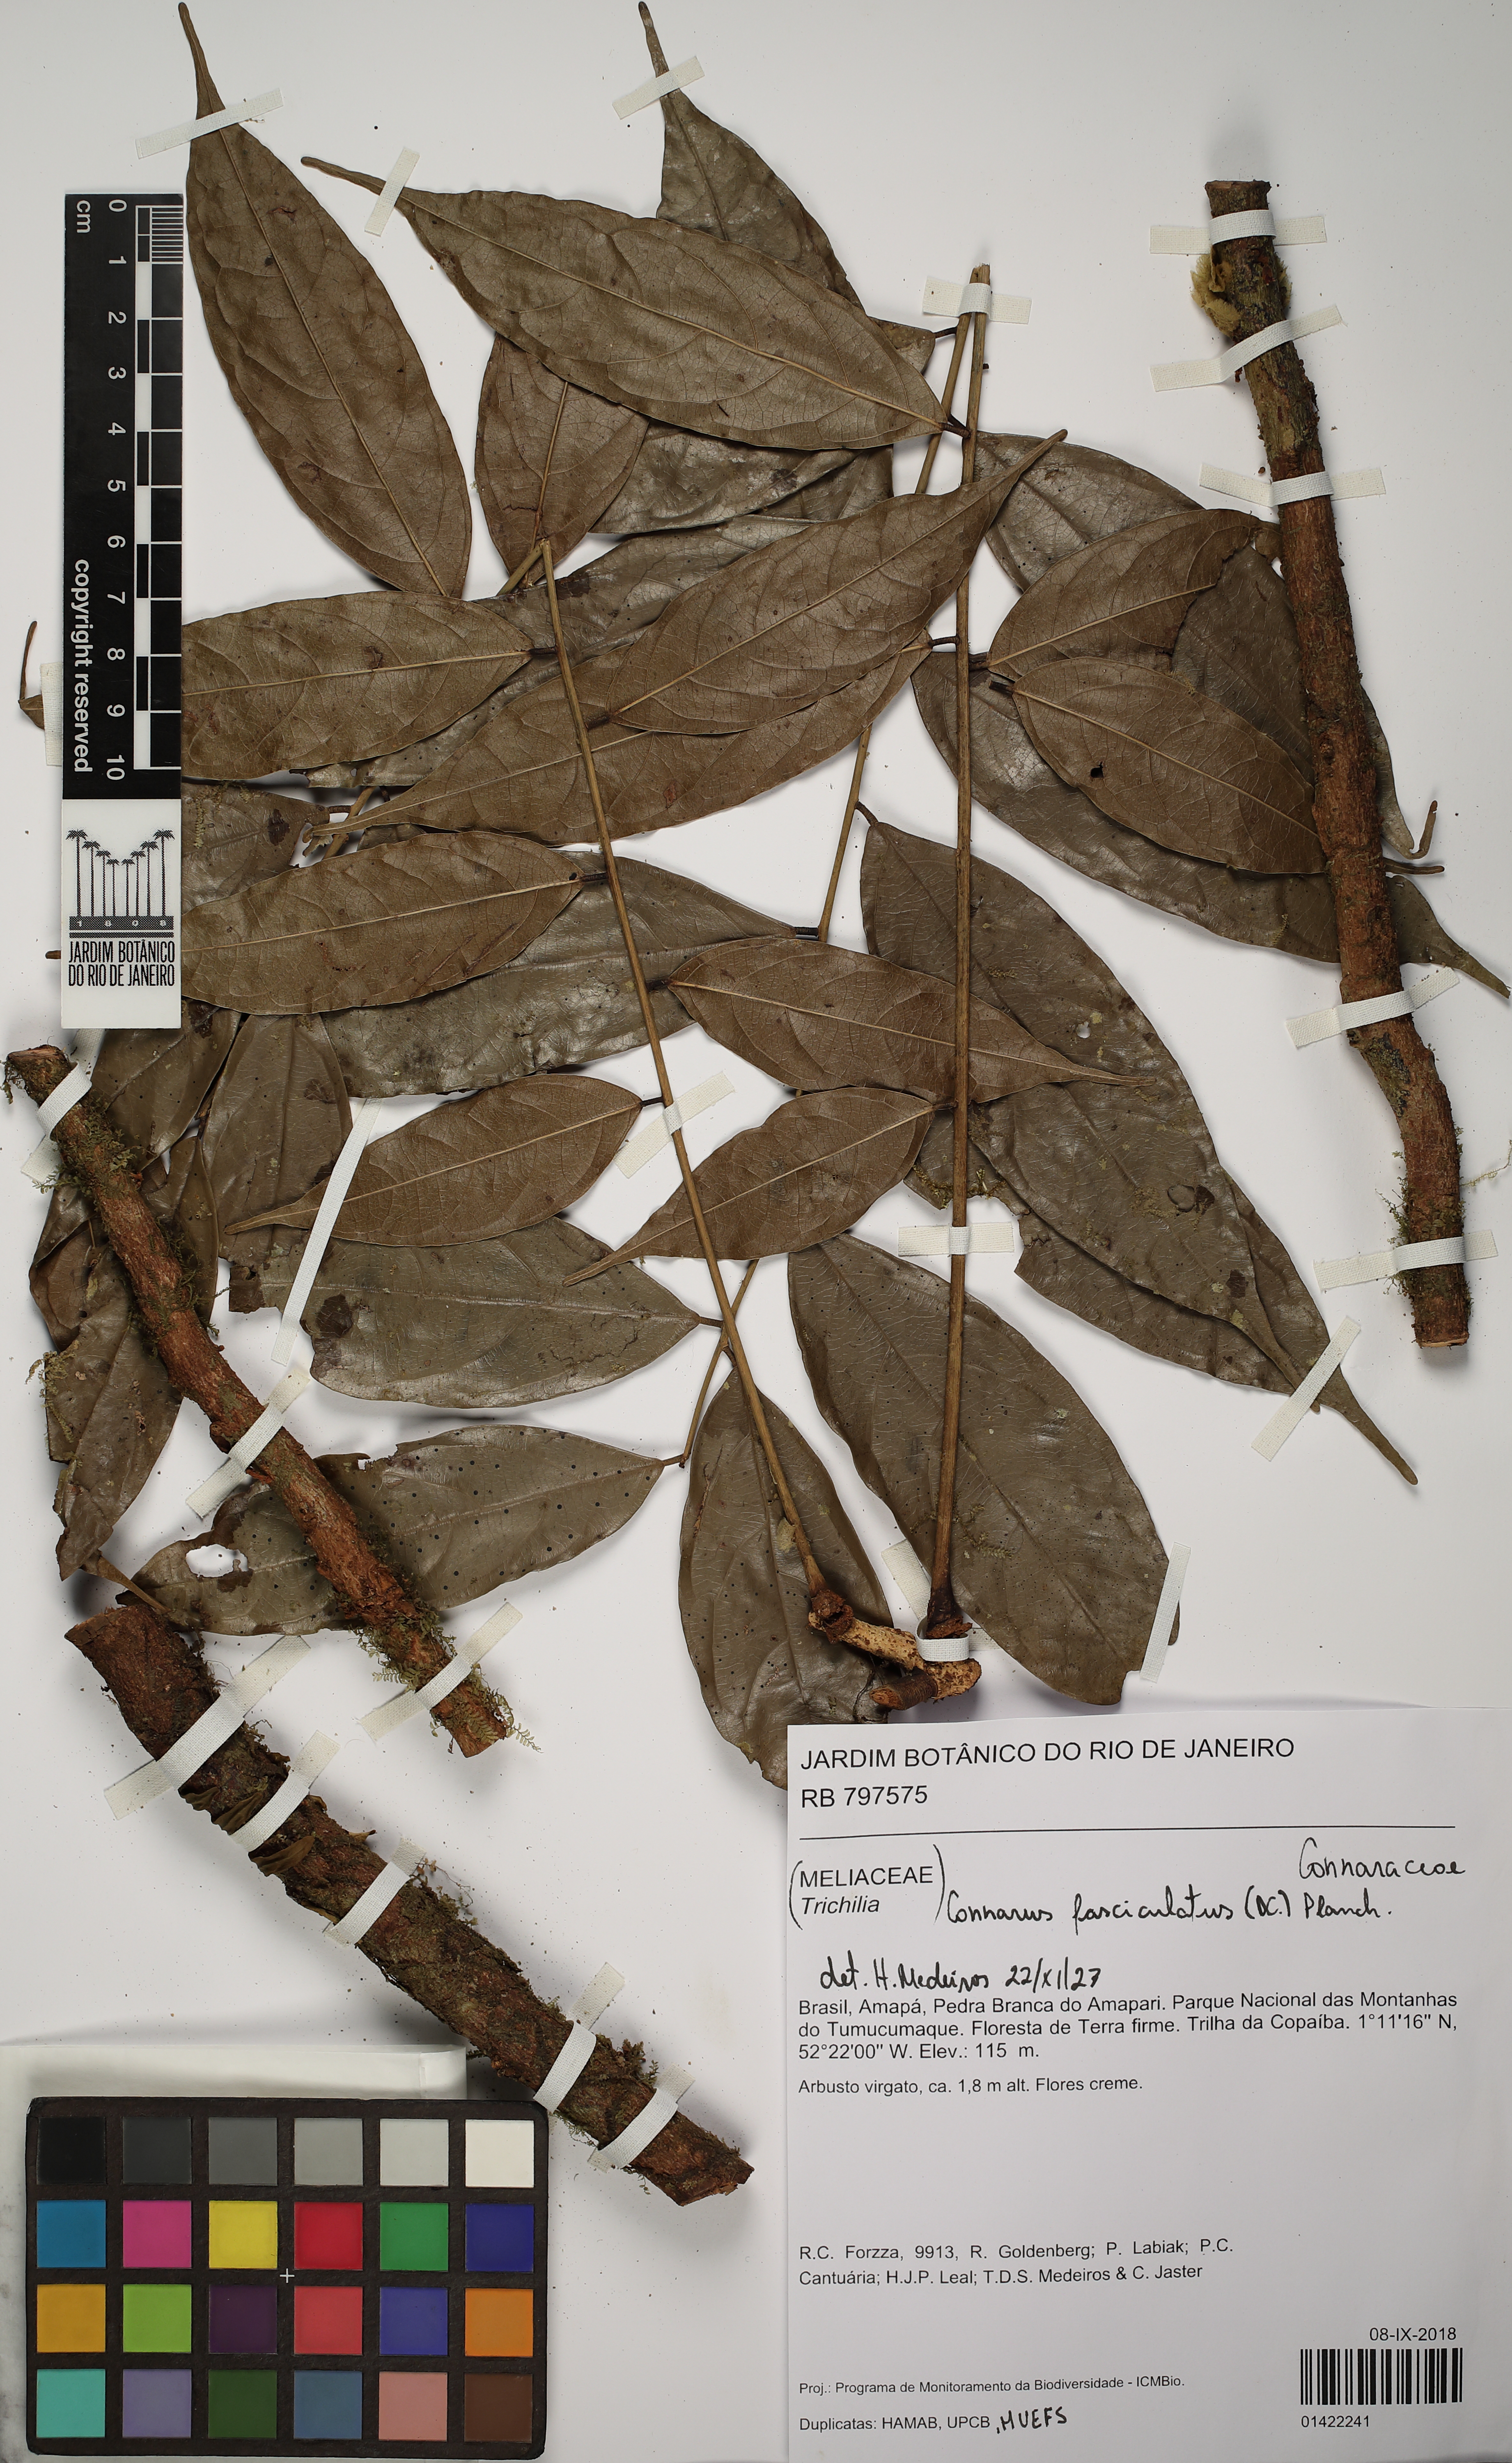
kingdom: Plantae
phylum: Tracheophyta
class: Magnoliopsida
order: Oxalidales
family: Connaraceae
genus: Connarus
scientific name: Connarus fasciculatus
